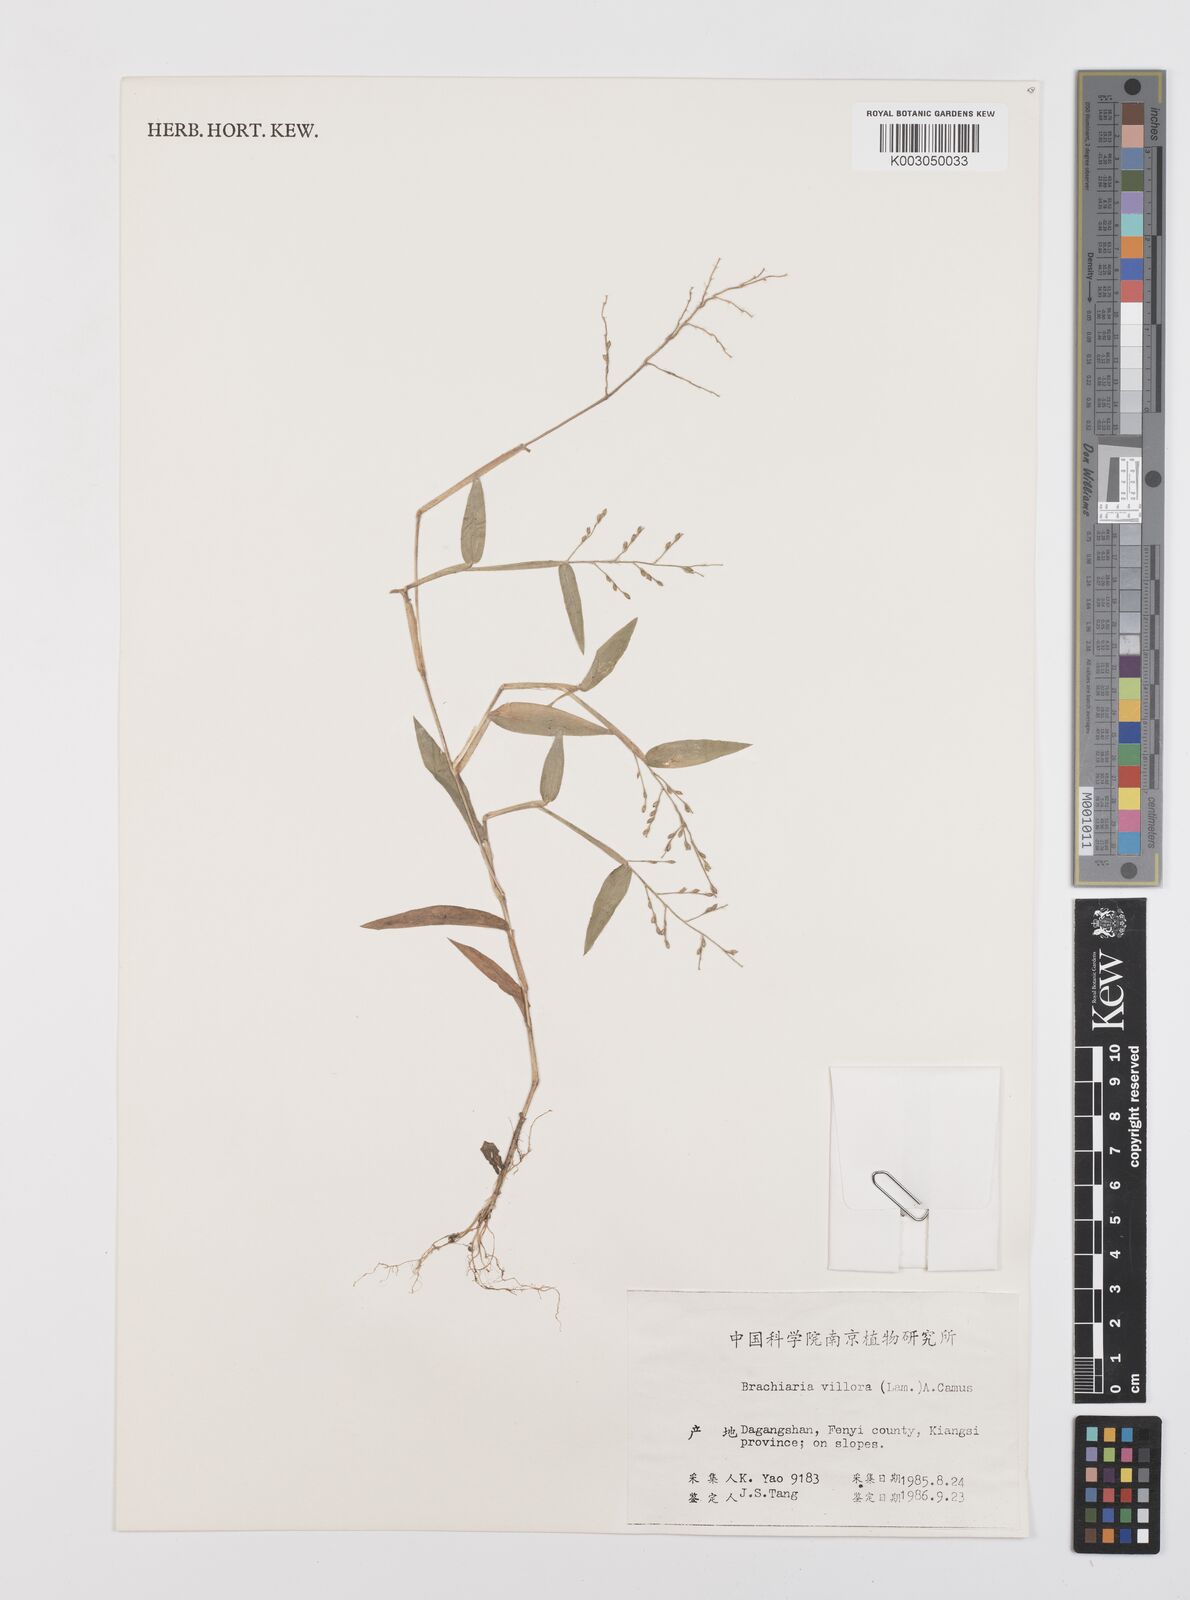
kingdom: Plantae
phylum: Tracheophyta
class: Liliopsida
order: Poales
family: Poaceae
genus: Urochloa
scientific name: Urochloa villosa
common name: Hairy signalgrass
